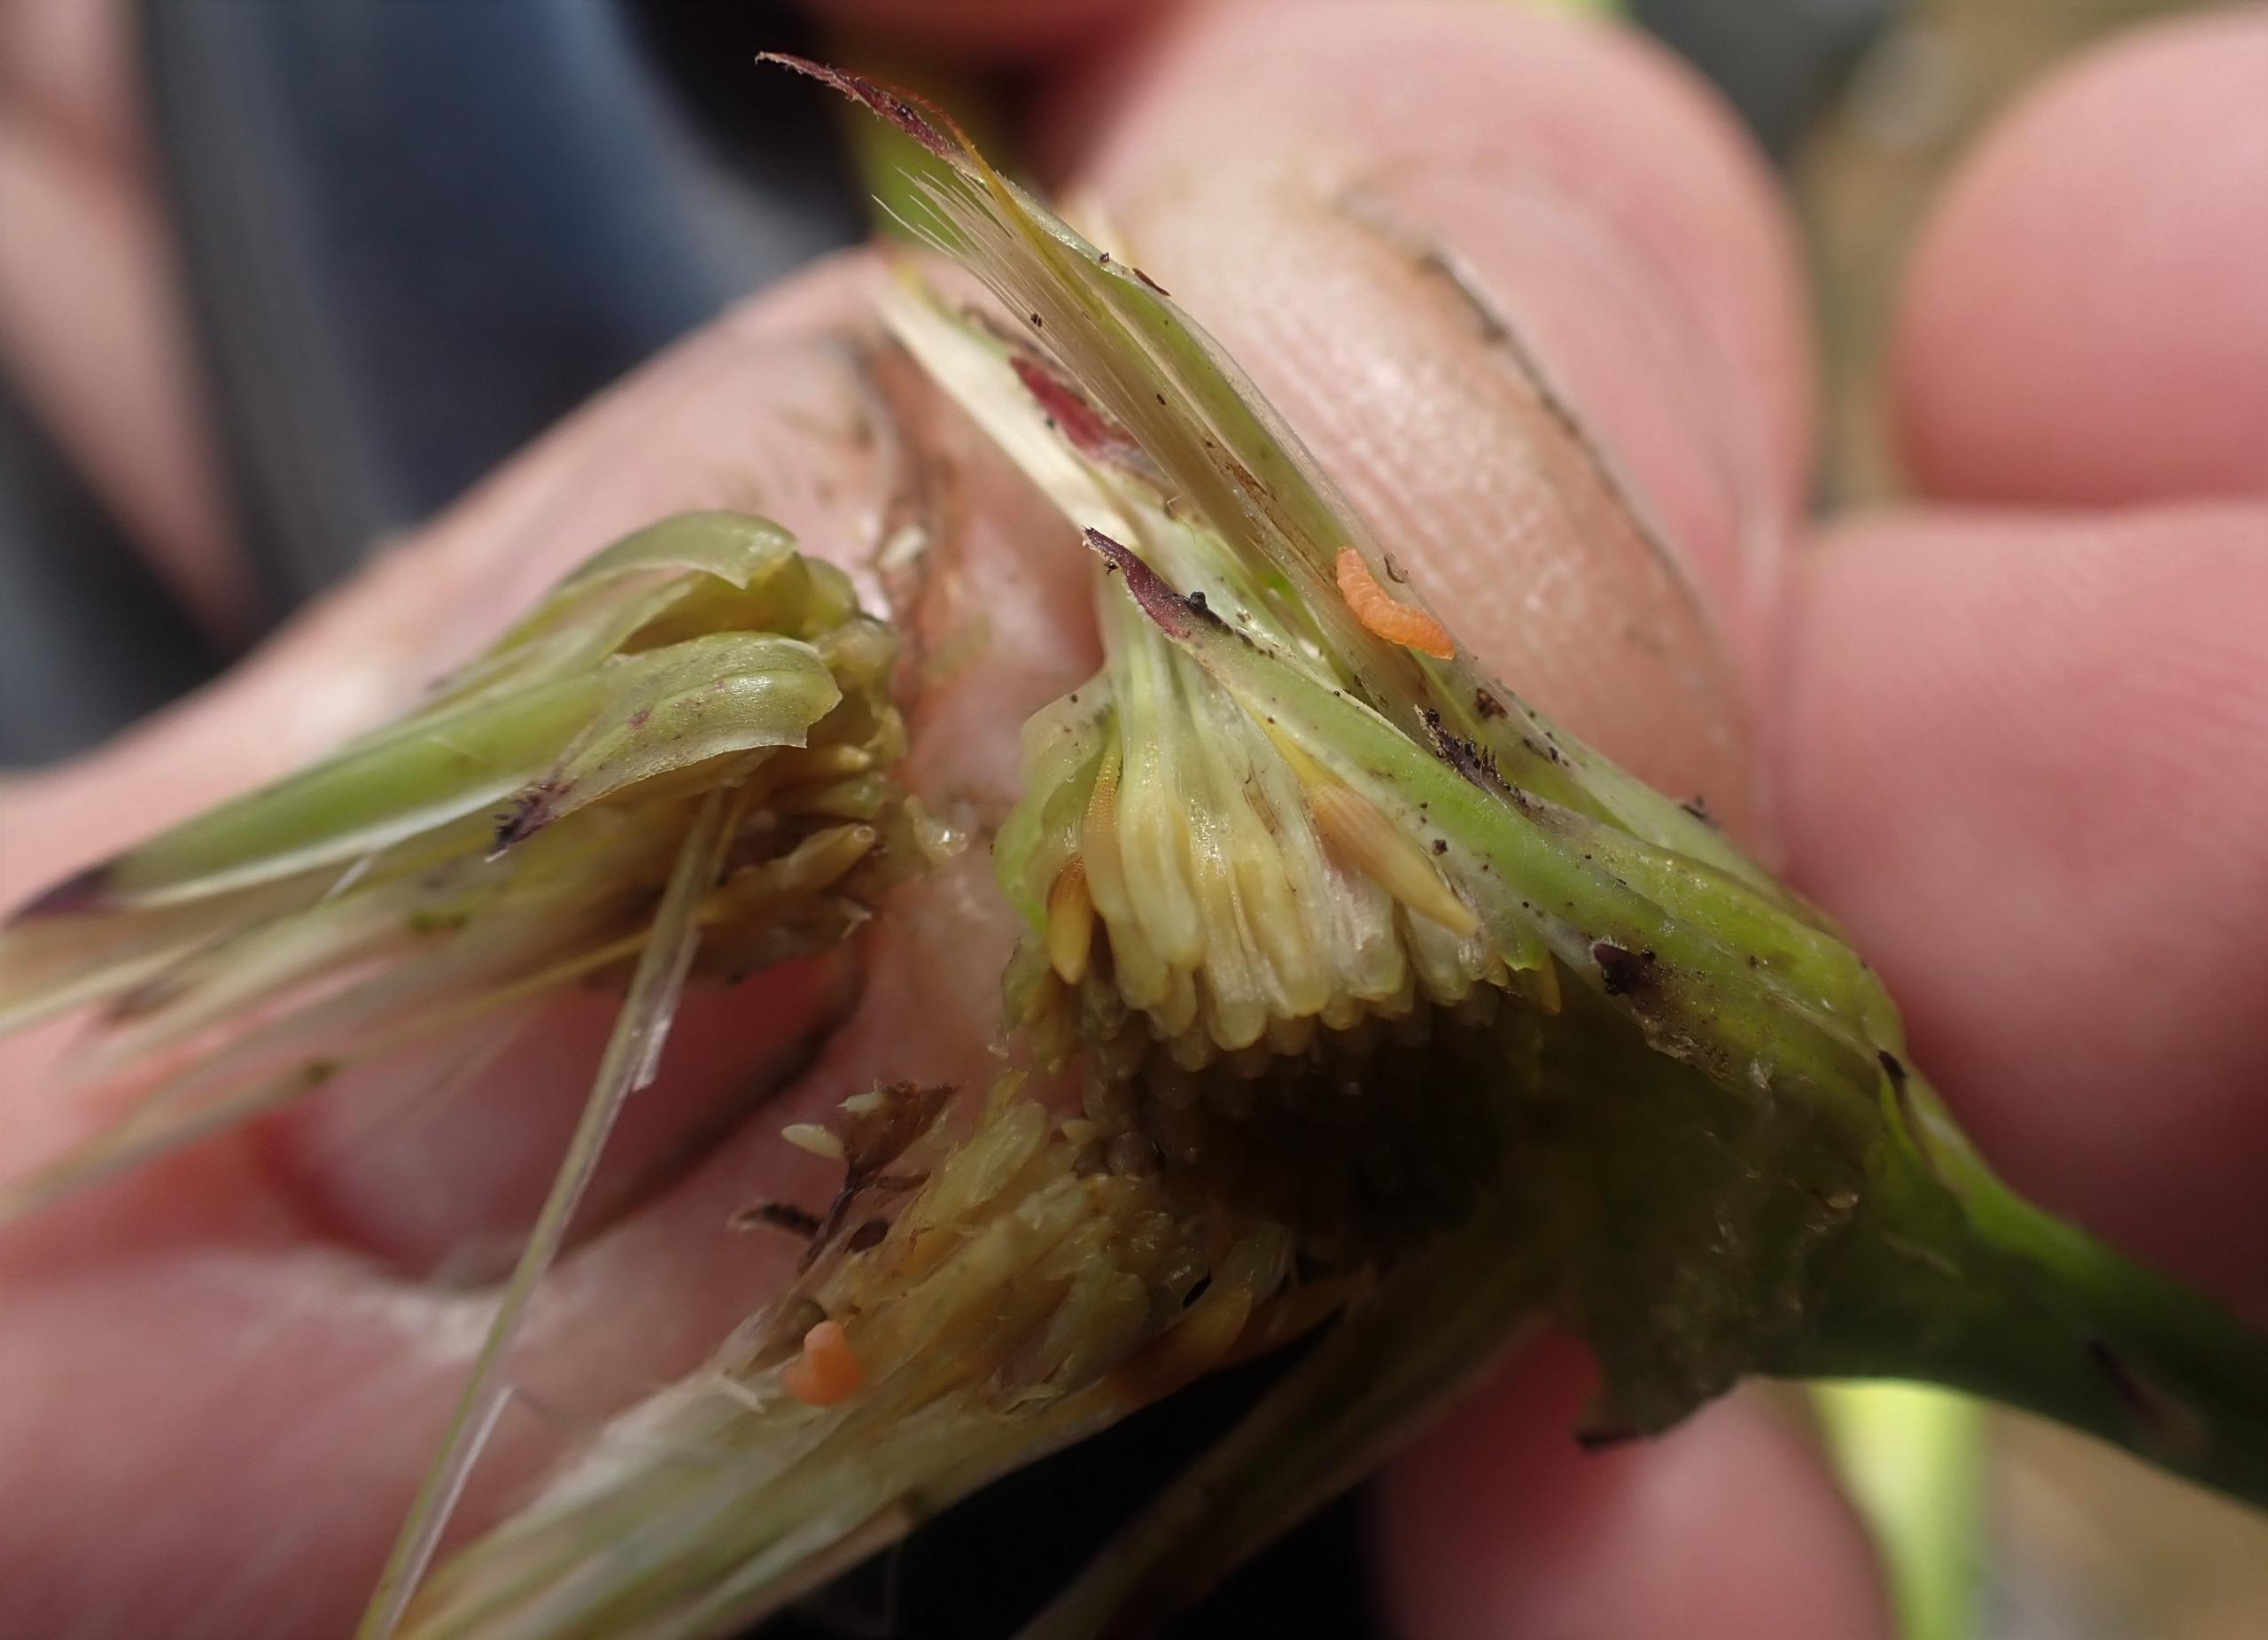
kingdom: Animalia
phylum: Arthropoda
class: Insecta
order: Diptera
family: Cecidomyiidae
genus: Jaapiella
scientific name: Jaapiella hypochoeridis
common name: Orange kongepengalmyg
